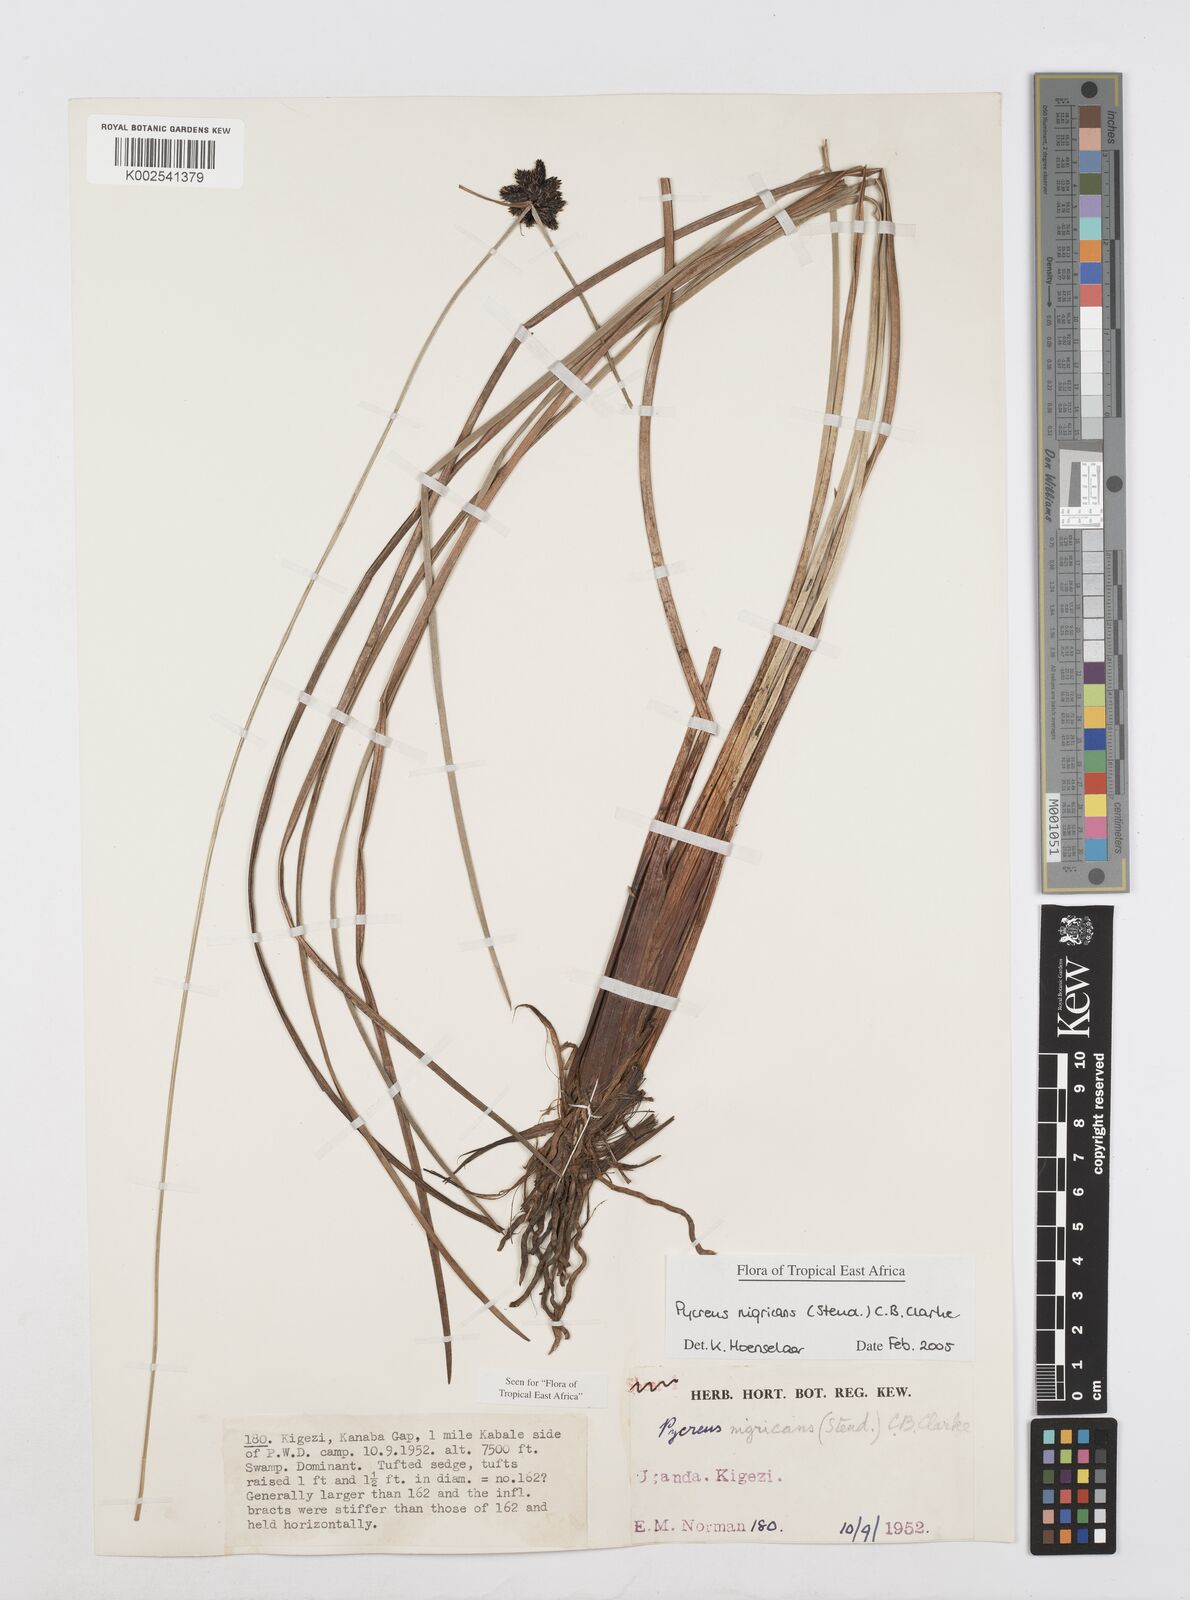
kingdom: Plantae
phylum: Tracheophyta
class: Liliopsida
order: Poales
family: Cyperaceae
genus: Cyperus
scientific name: Cyperus nigricans
